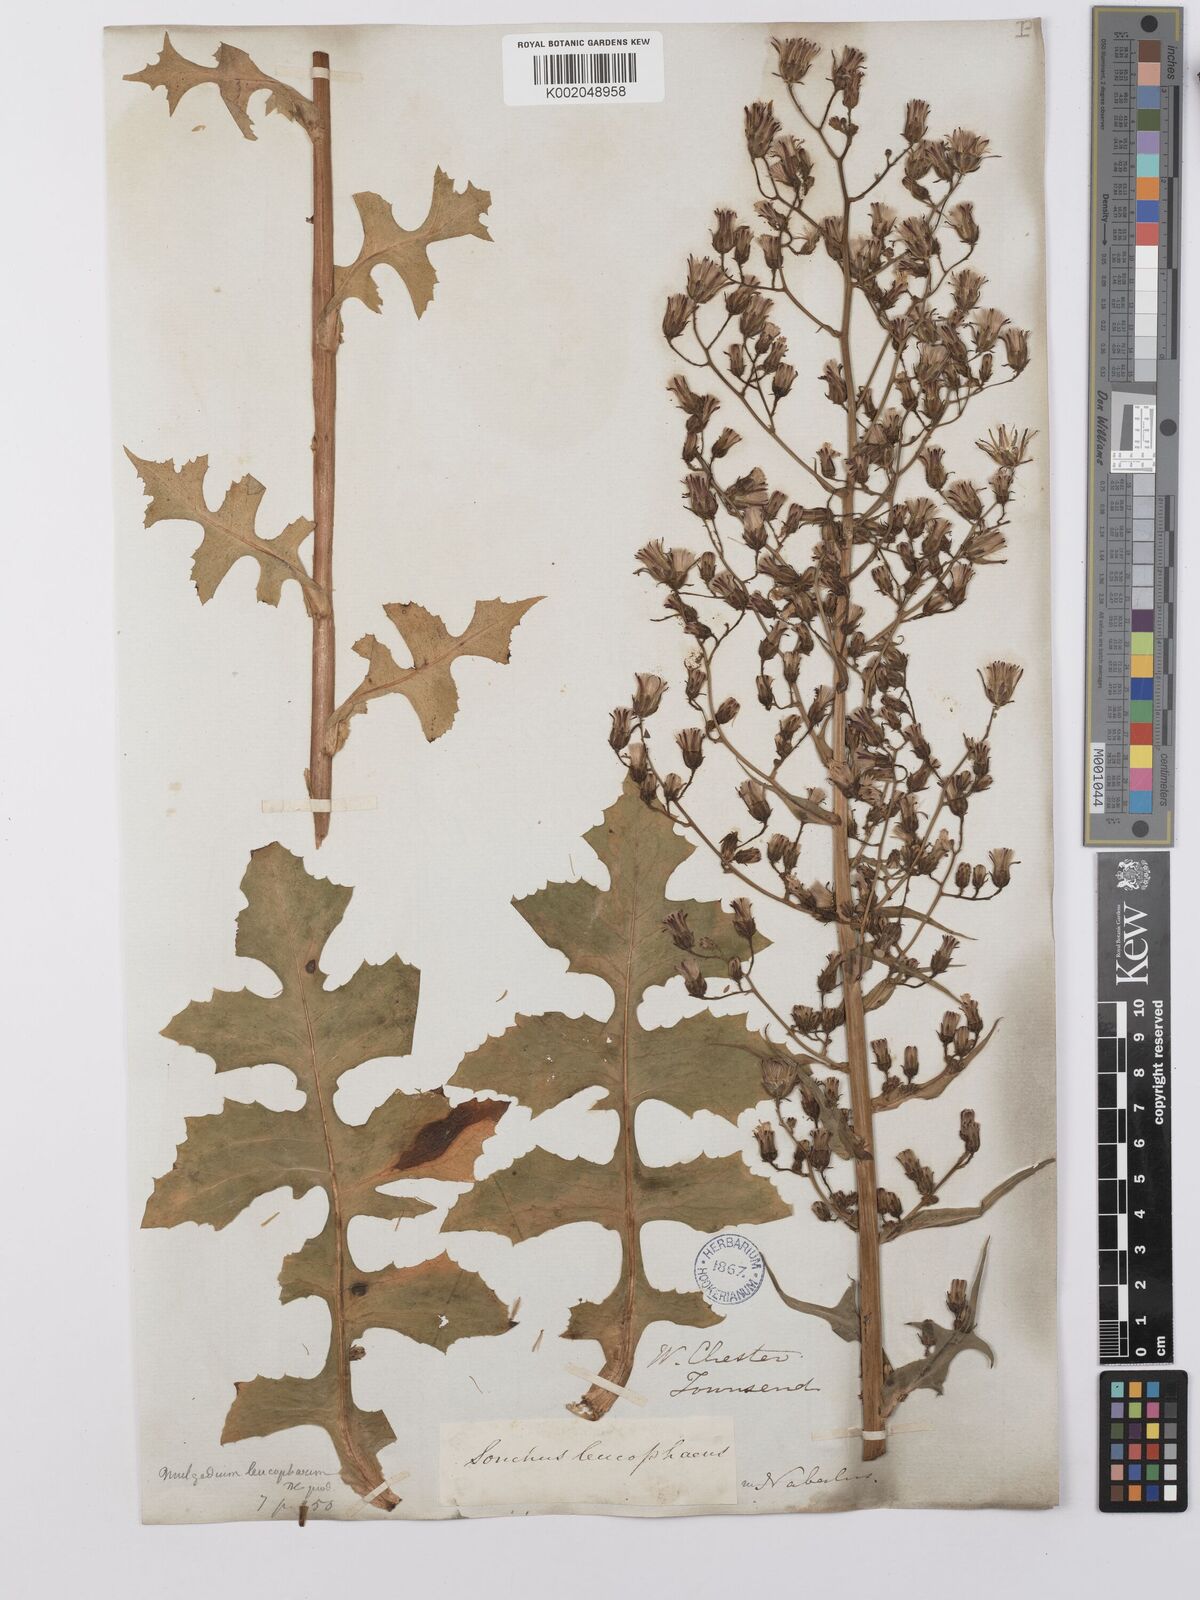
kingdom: Plantae
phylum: Tracheophyta
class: Magnoliopsida
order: Asterales
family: Asteraceae
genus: Lactuca
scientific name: Lactuca
